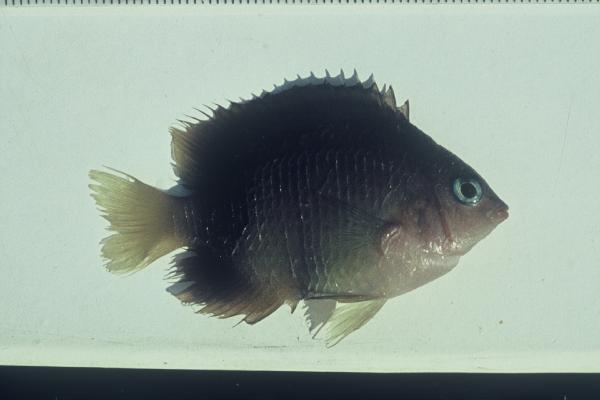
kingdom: Animalia
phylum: Chordata
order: Perciformes
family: Pomacentridae
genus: Plectroglyphidodon
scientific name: Plectroglyphidodon johnstonianus
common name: Johnston damsel
